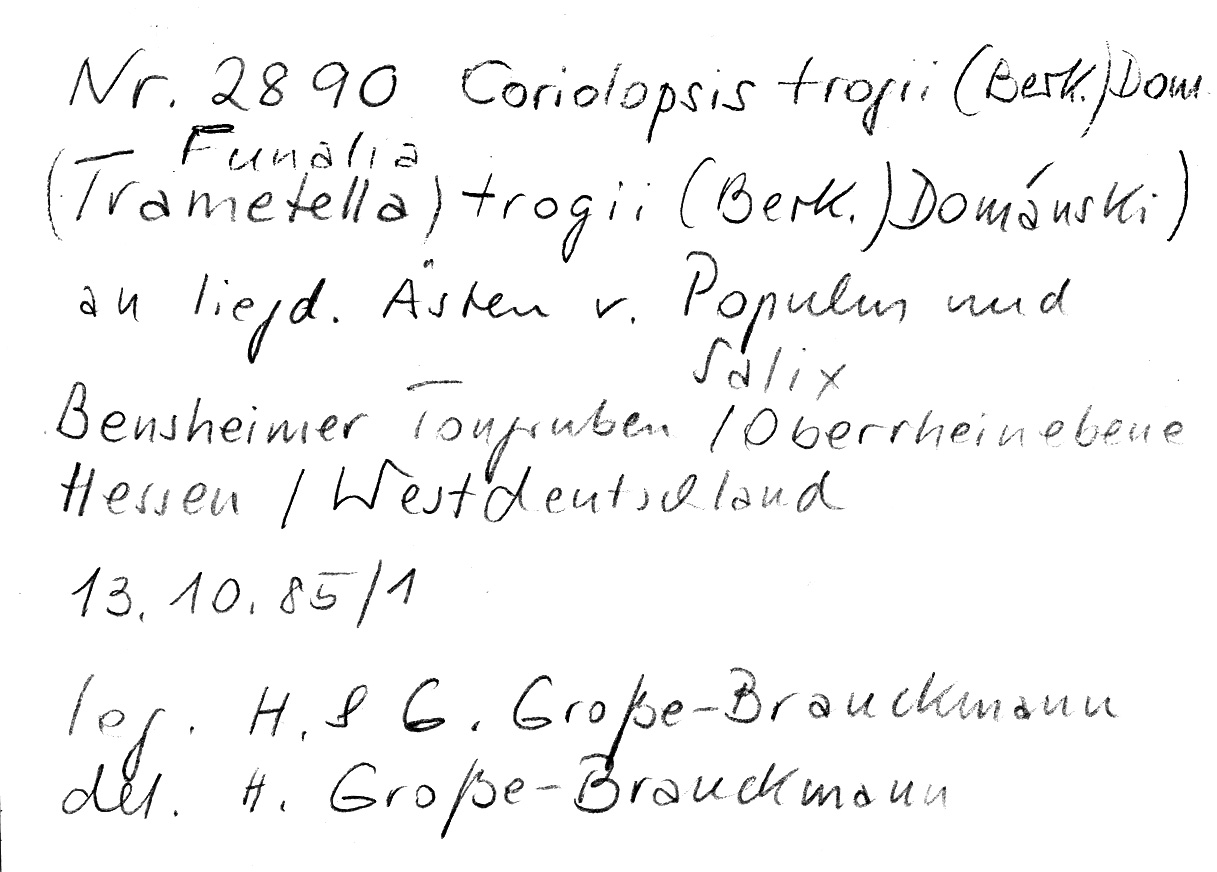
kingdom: Plantae
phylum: Tracheophyta
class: Magnoliopsida
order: Malpighiales
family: Salicaceae
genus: Salix
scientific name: Salix
